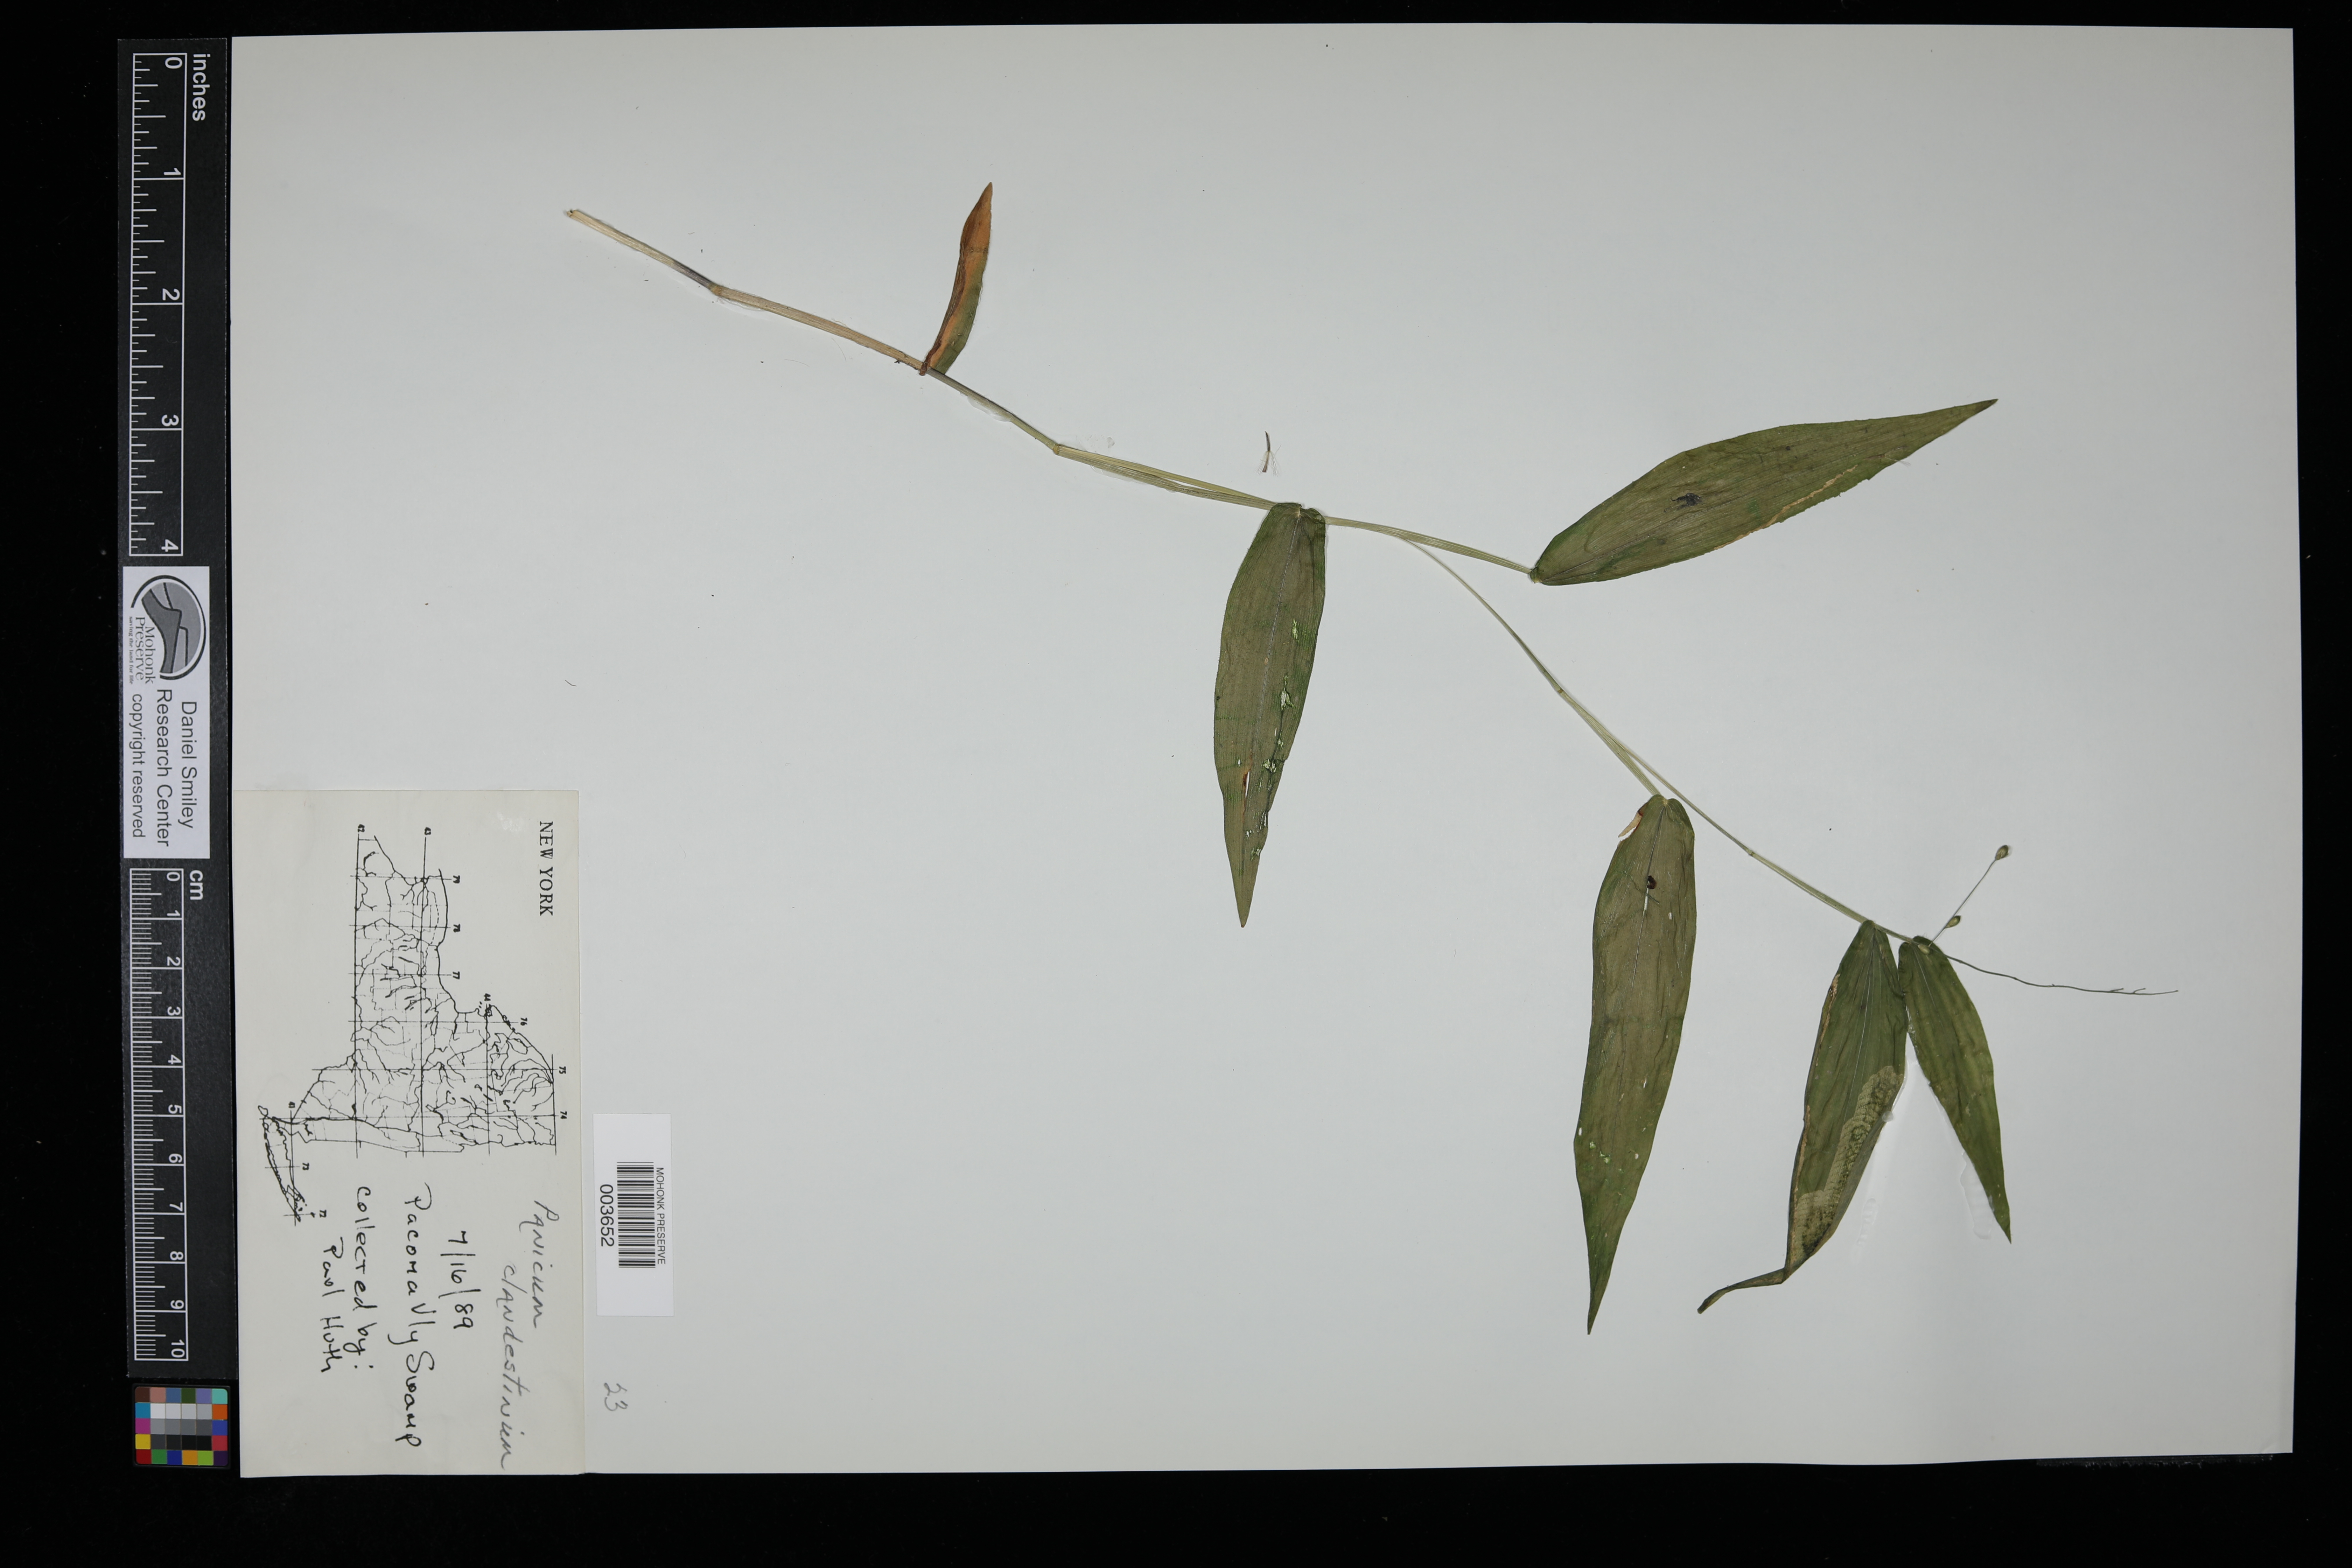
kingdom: Plantae
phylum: Tracheophyta
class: Liliopsida
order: Poales
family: Poaceae
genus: Dichanthelium
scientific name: Dichanthelium clandestinum
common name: Deer-tongue grass
